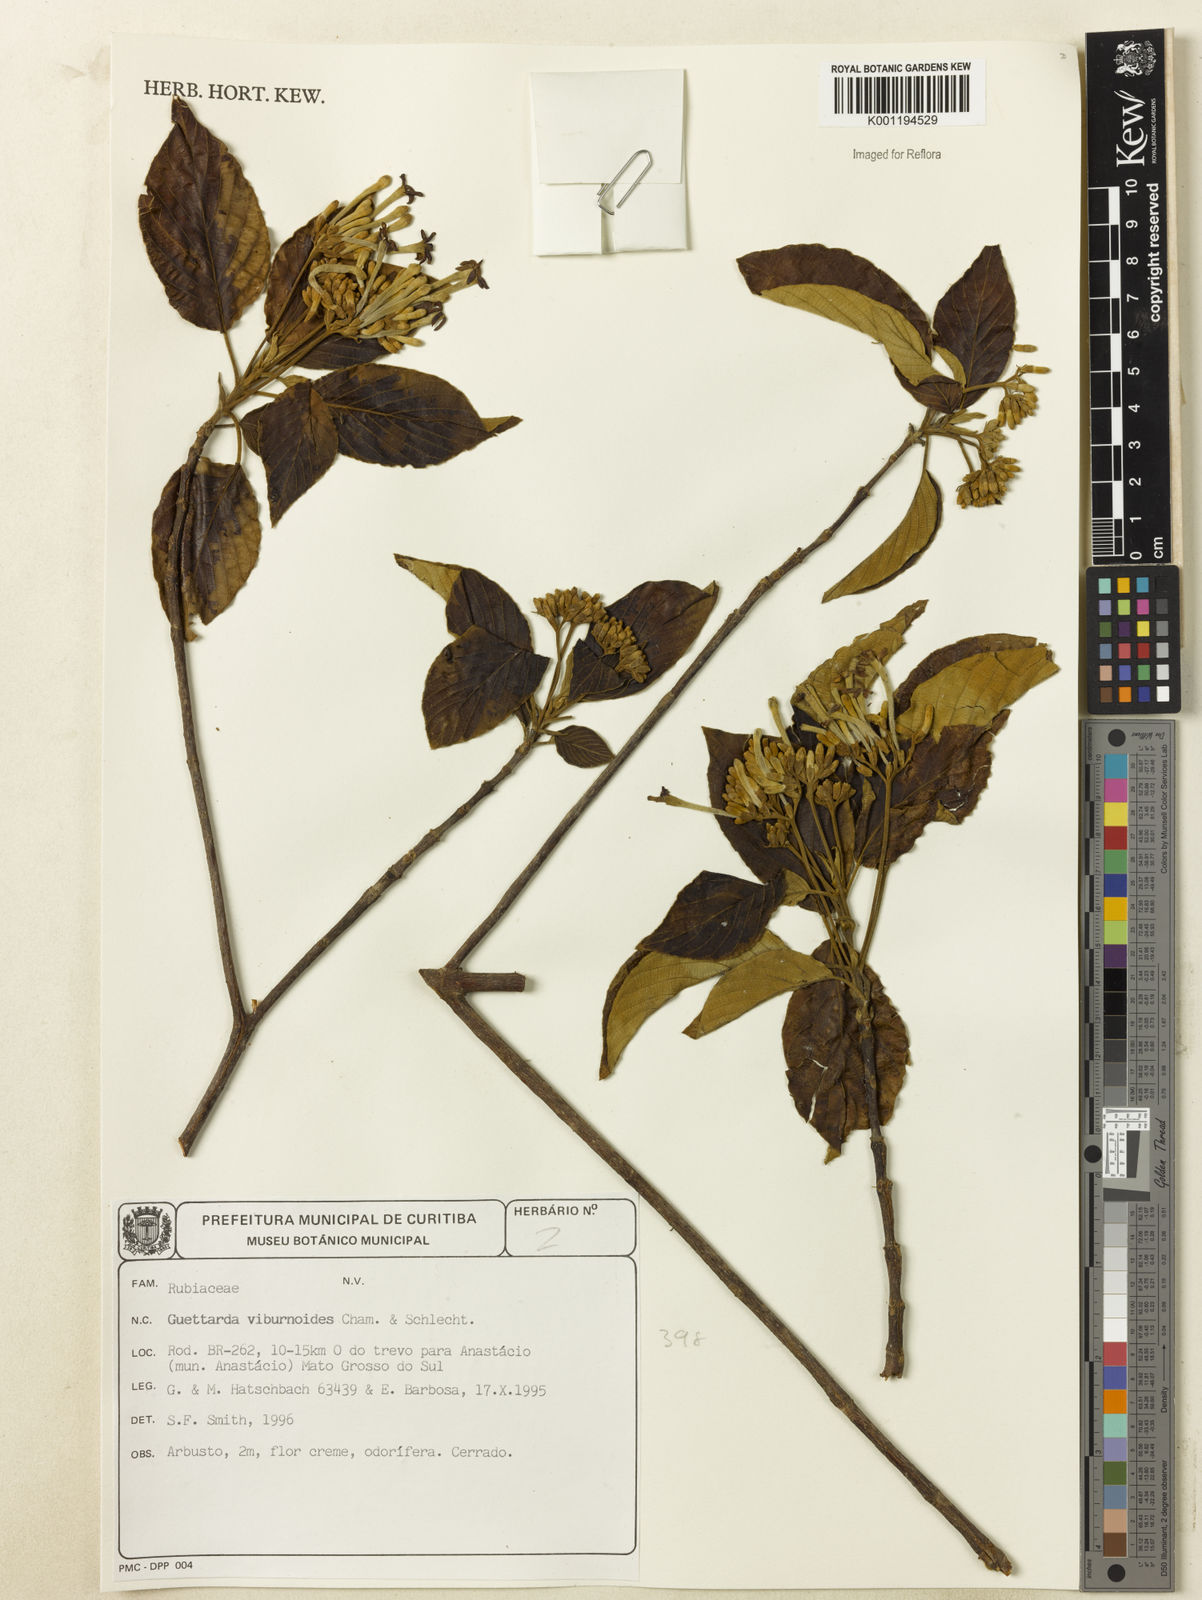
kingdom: Plantae
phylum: Tracheophyta
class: Magnoliopsida
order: Gentianales
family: Rubiaceae
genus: Guettarda
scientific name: Guettarda viburnoides
